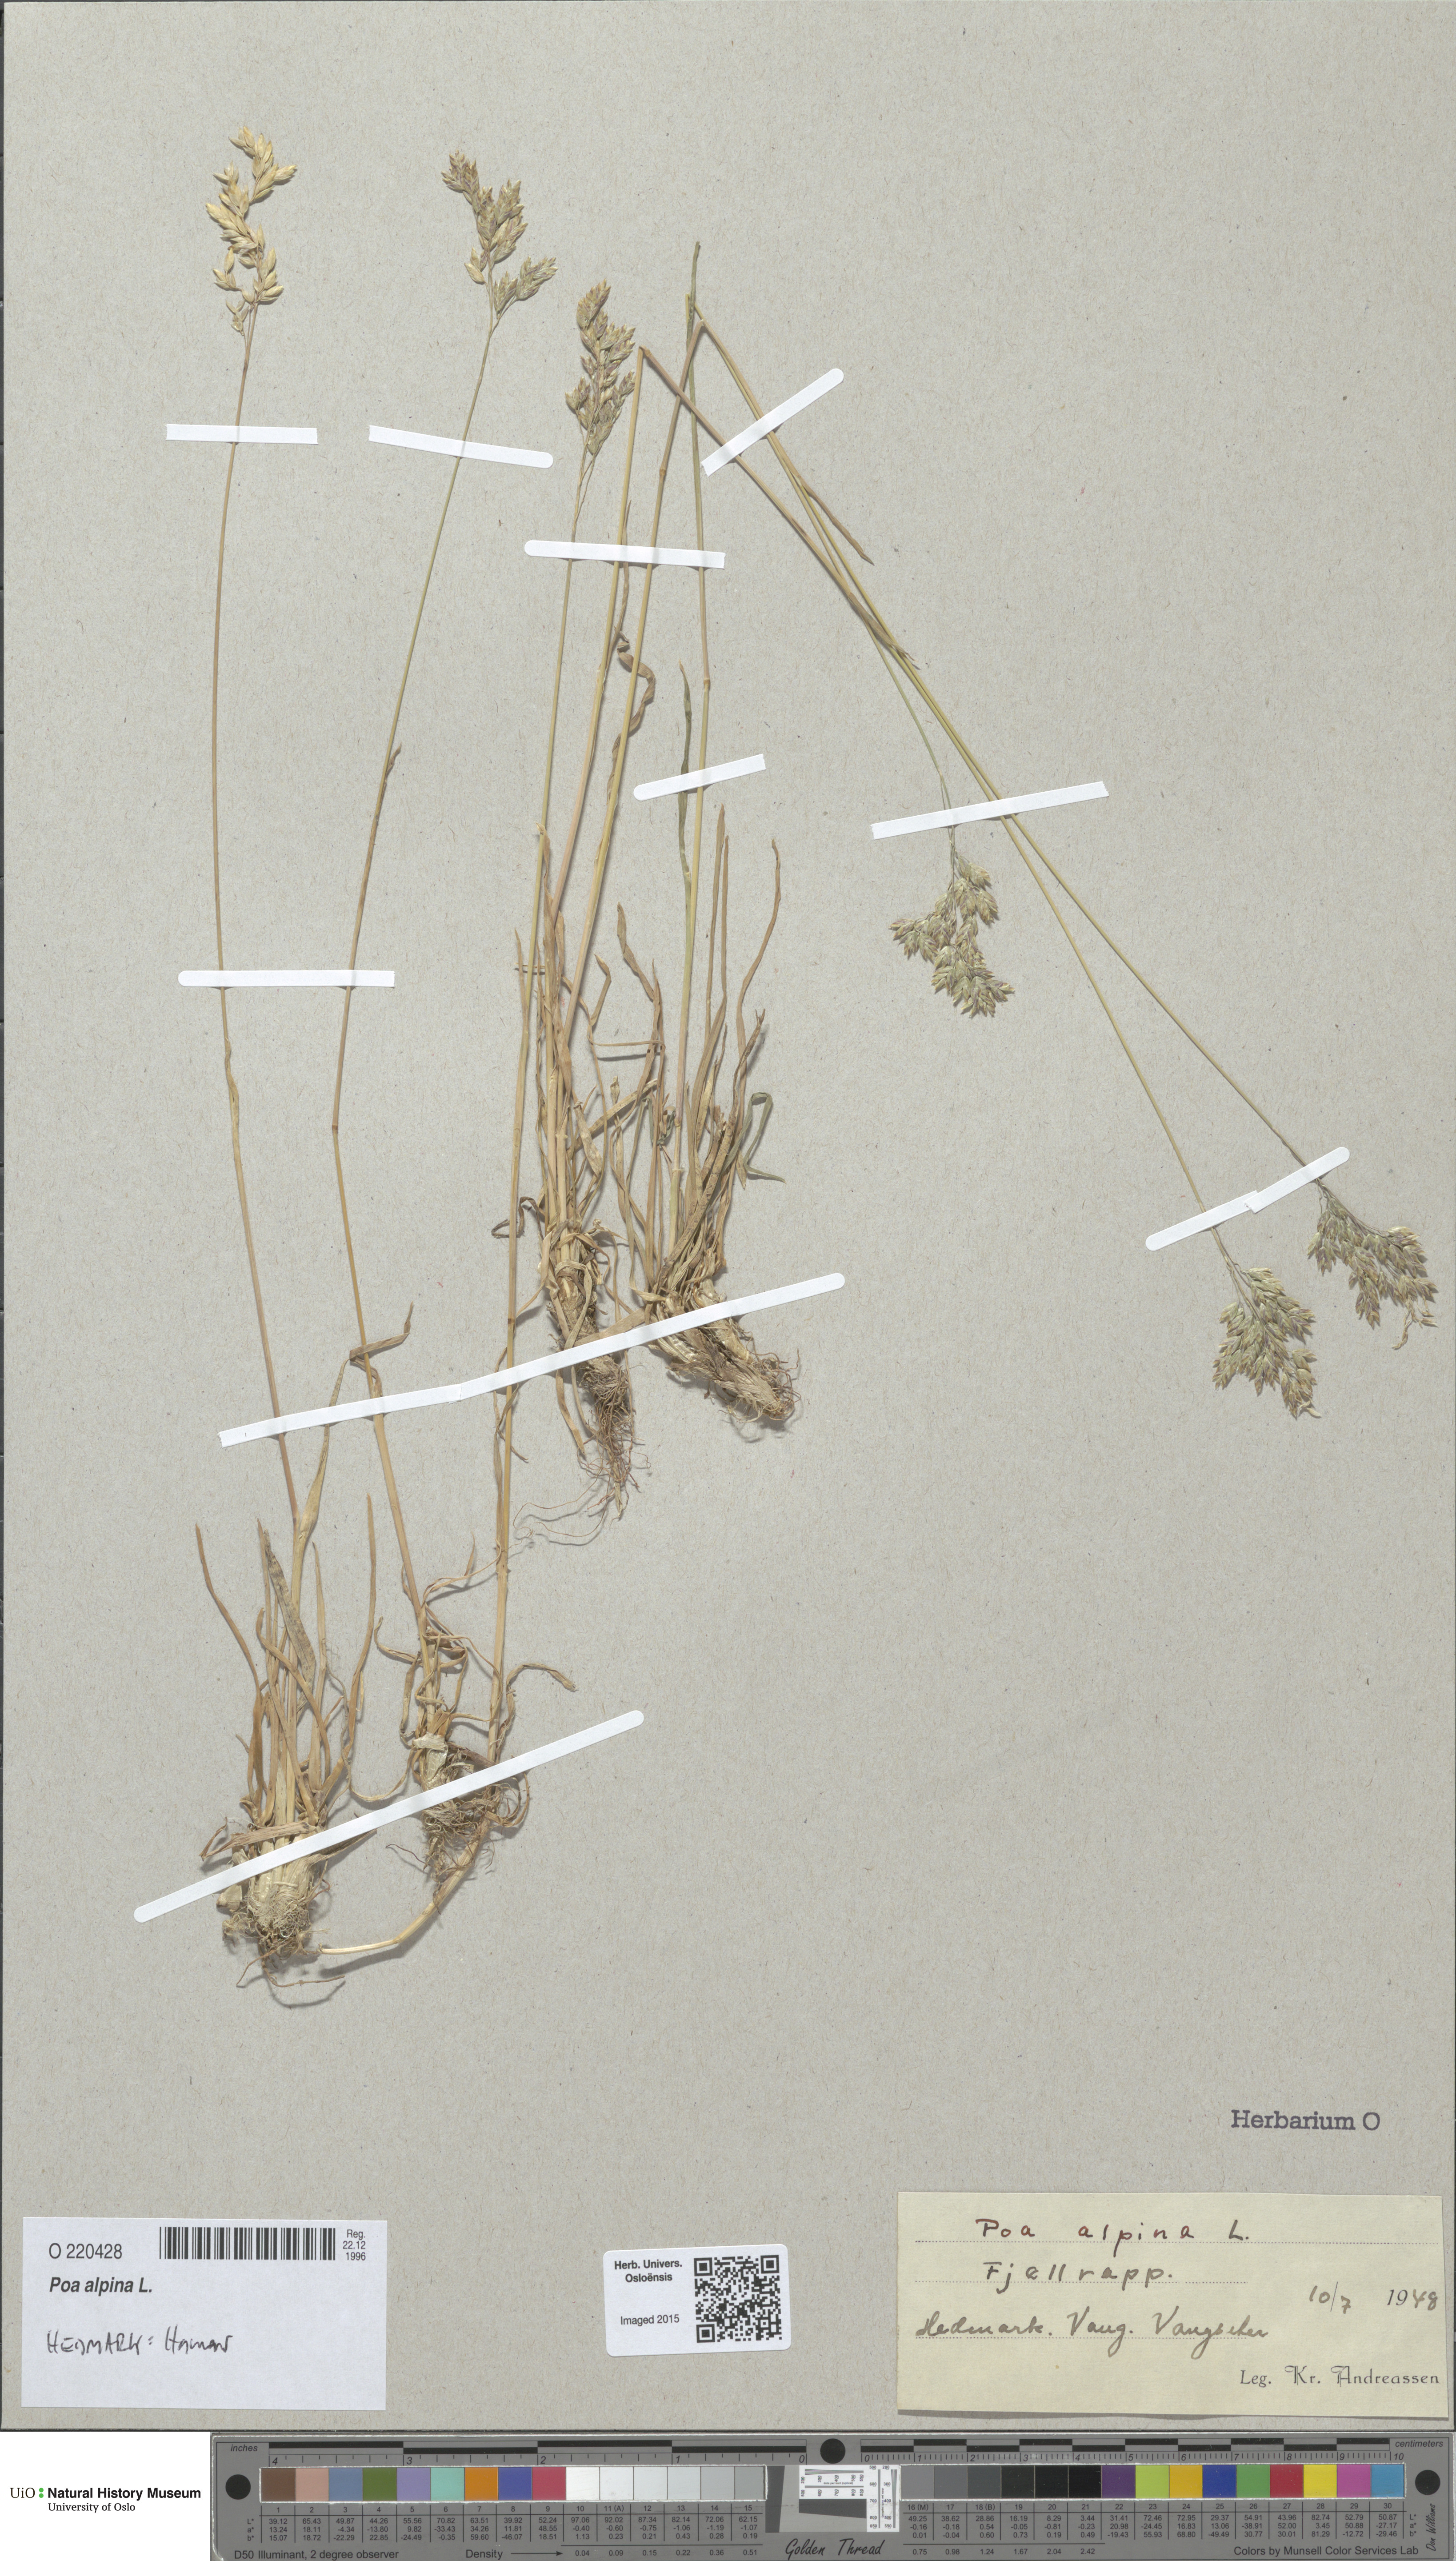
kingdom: Plantae
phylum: Tracheophyta
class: Liliopsida
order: Poales
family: Poaceae
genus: Poa
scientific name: Poa alpina
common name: Alpine bluegrass
